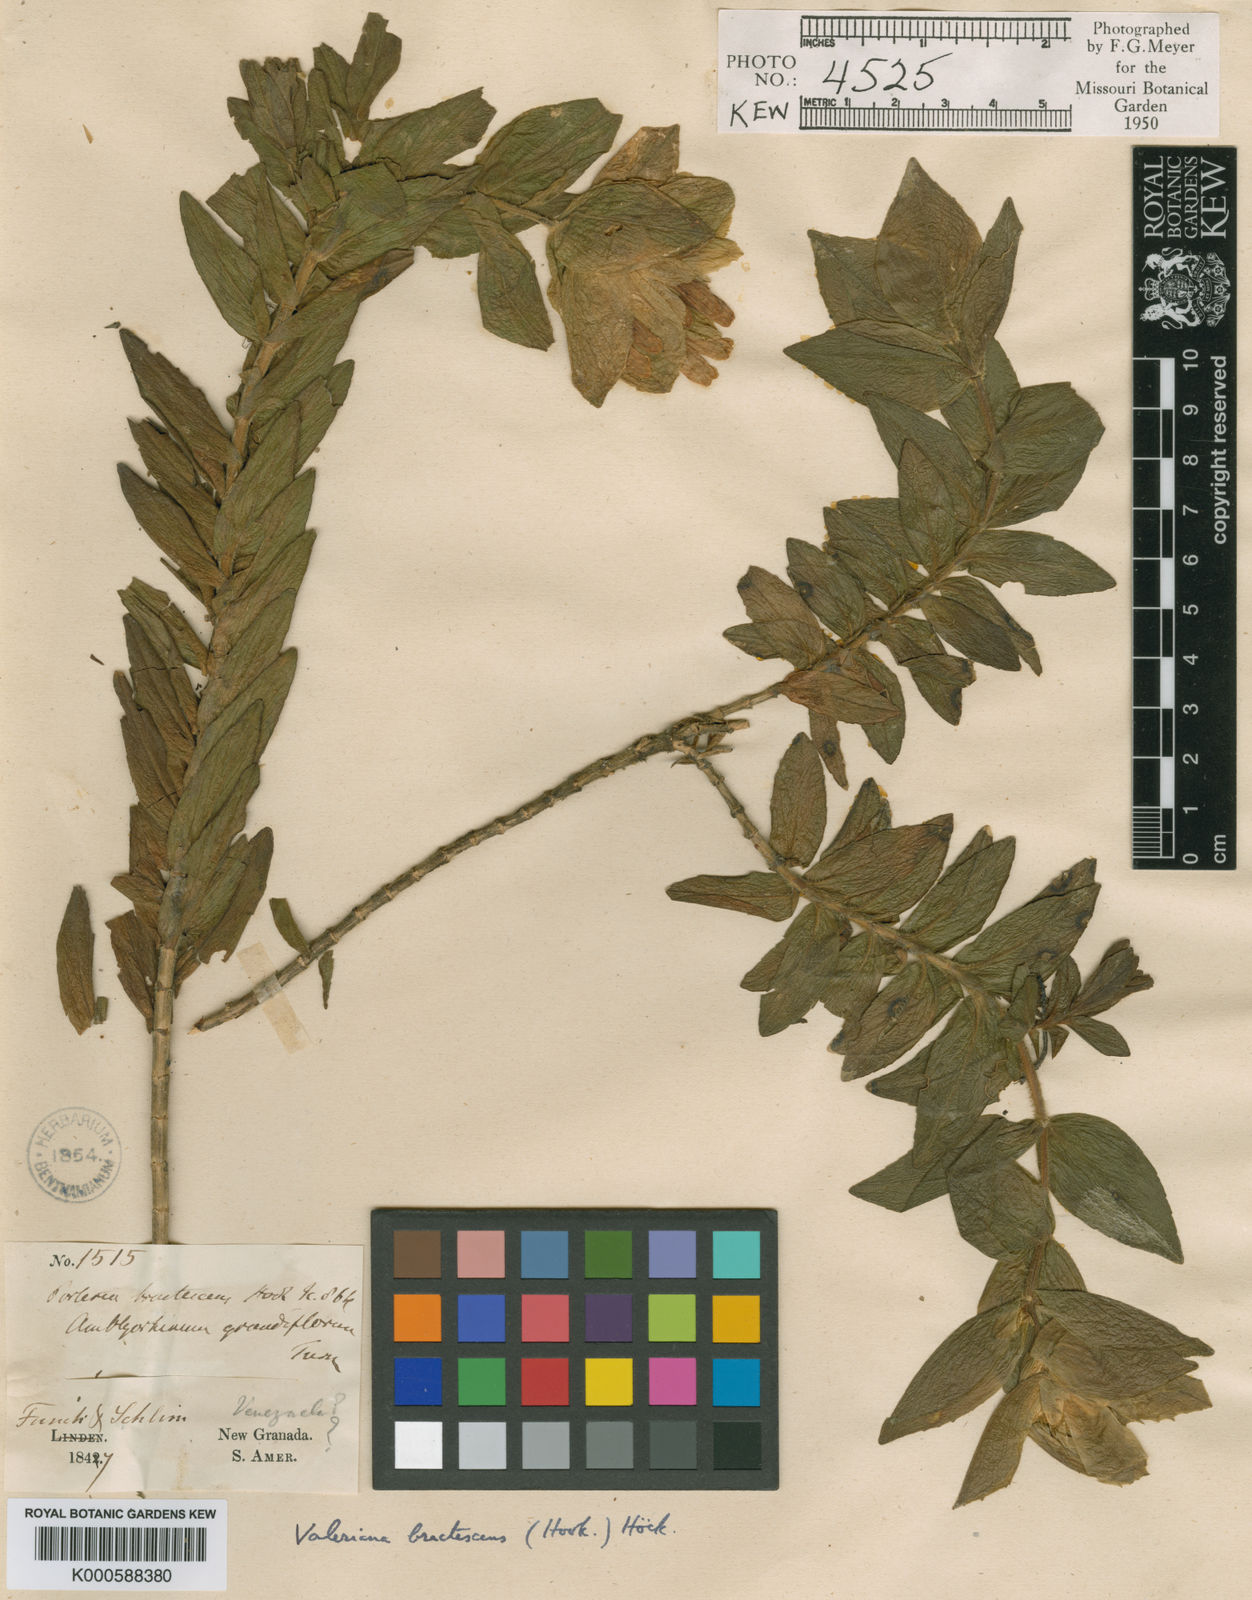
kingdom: Plantae
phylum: Tracheophyta
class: Magnoliopsida
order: Dipsacales
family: Caprifoliaceae
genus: Valeriana
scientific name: Valeriana
